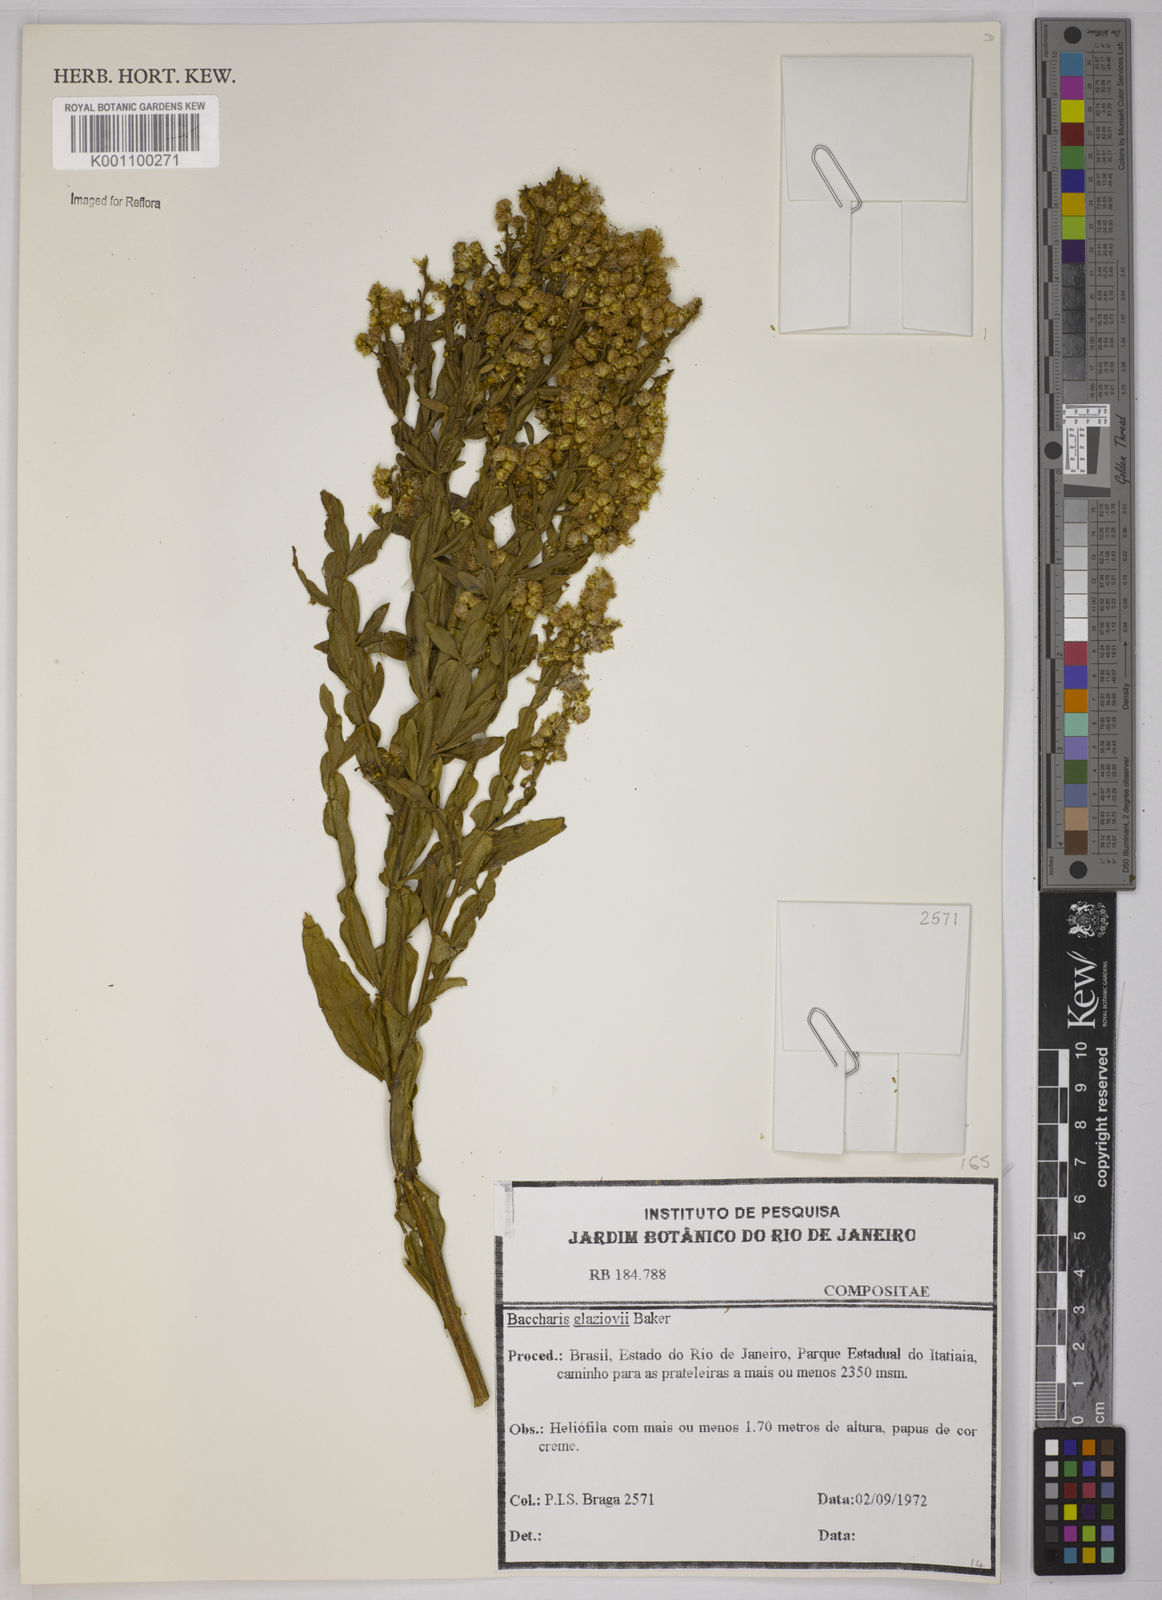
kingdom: Plantae
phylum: Tracheophyta
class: Magnoliopsida
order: Asterales
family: Asteraceae
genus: Baccharis
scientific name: Baccharis glaziovii
